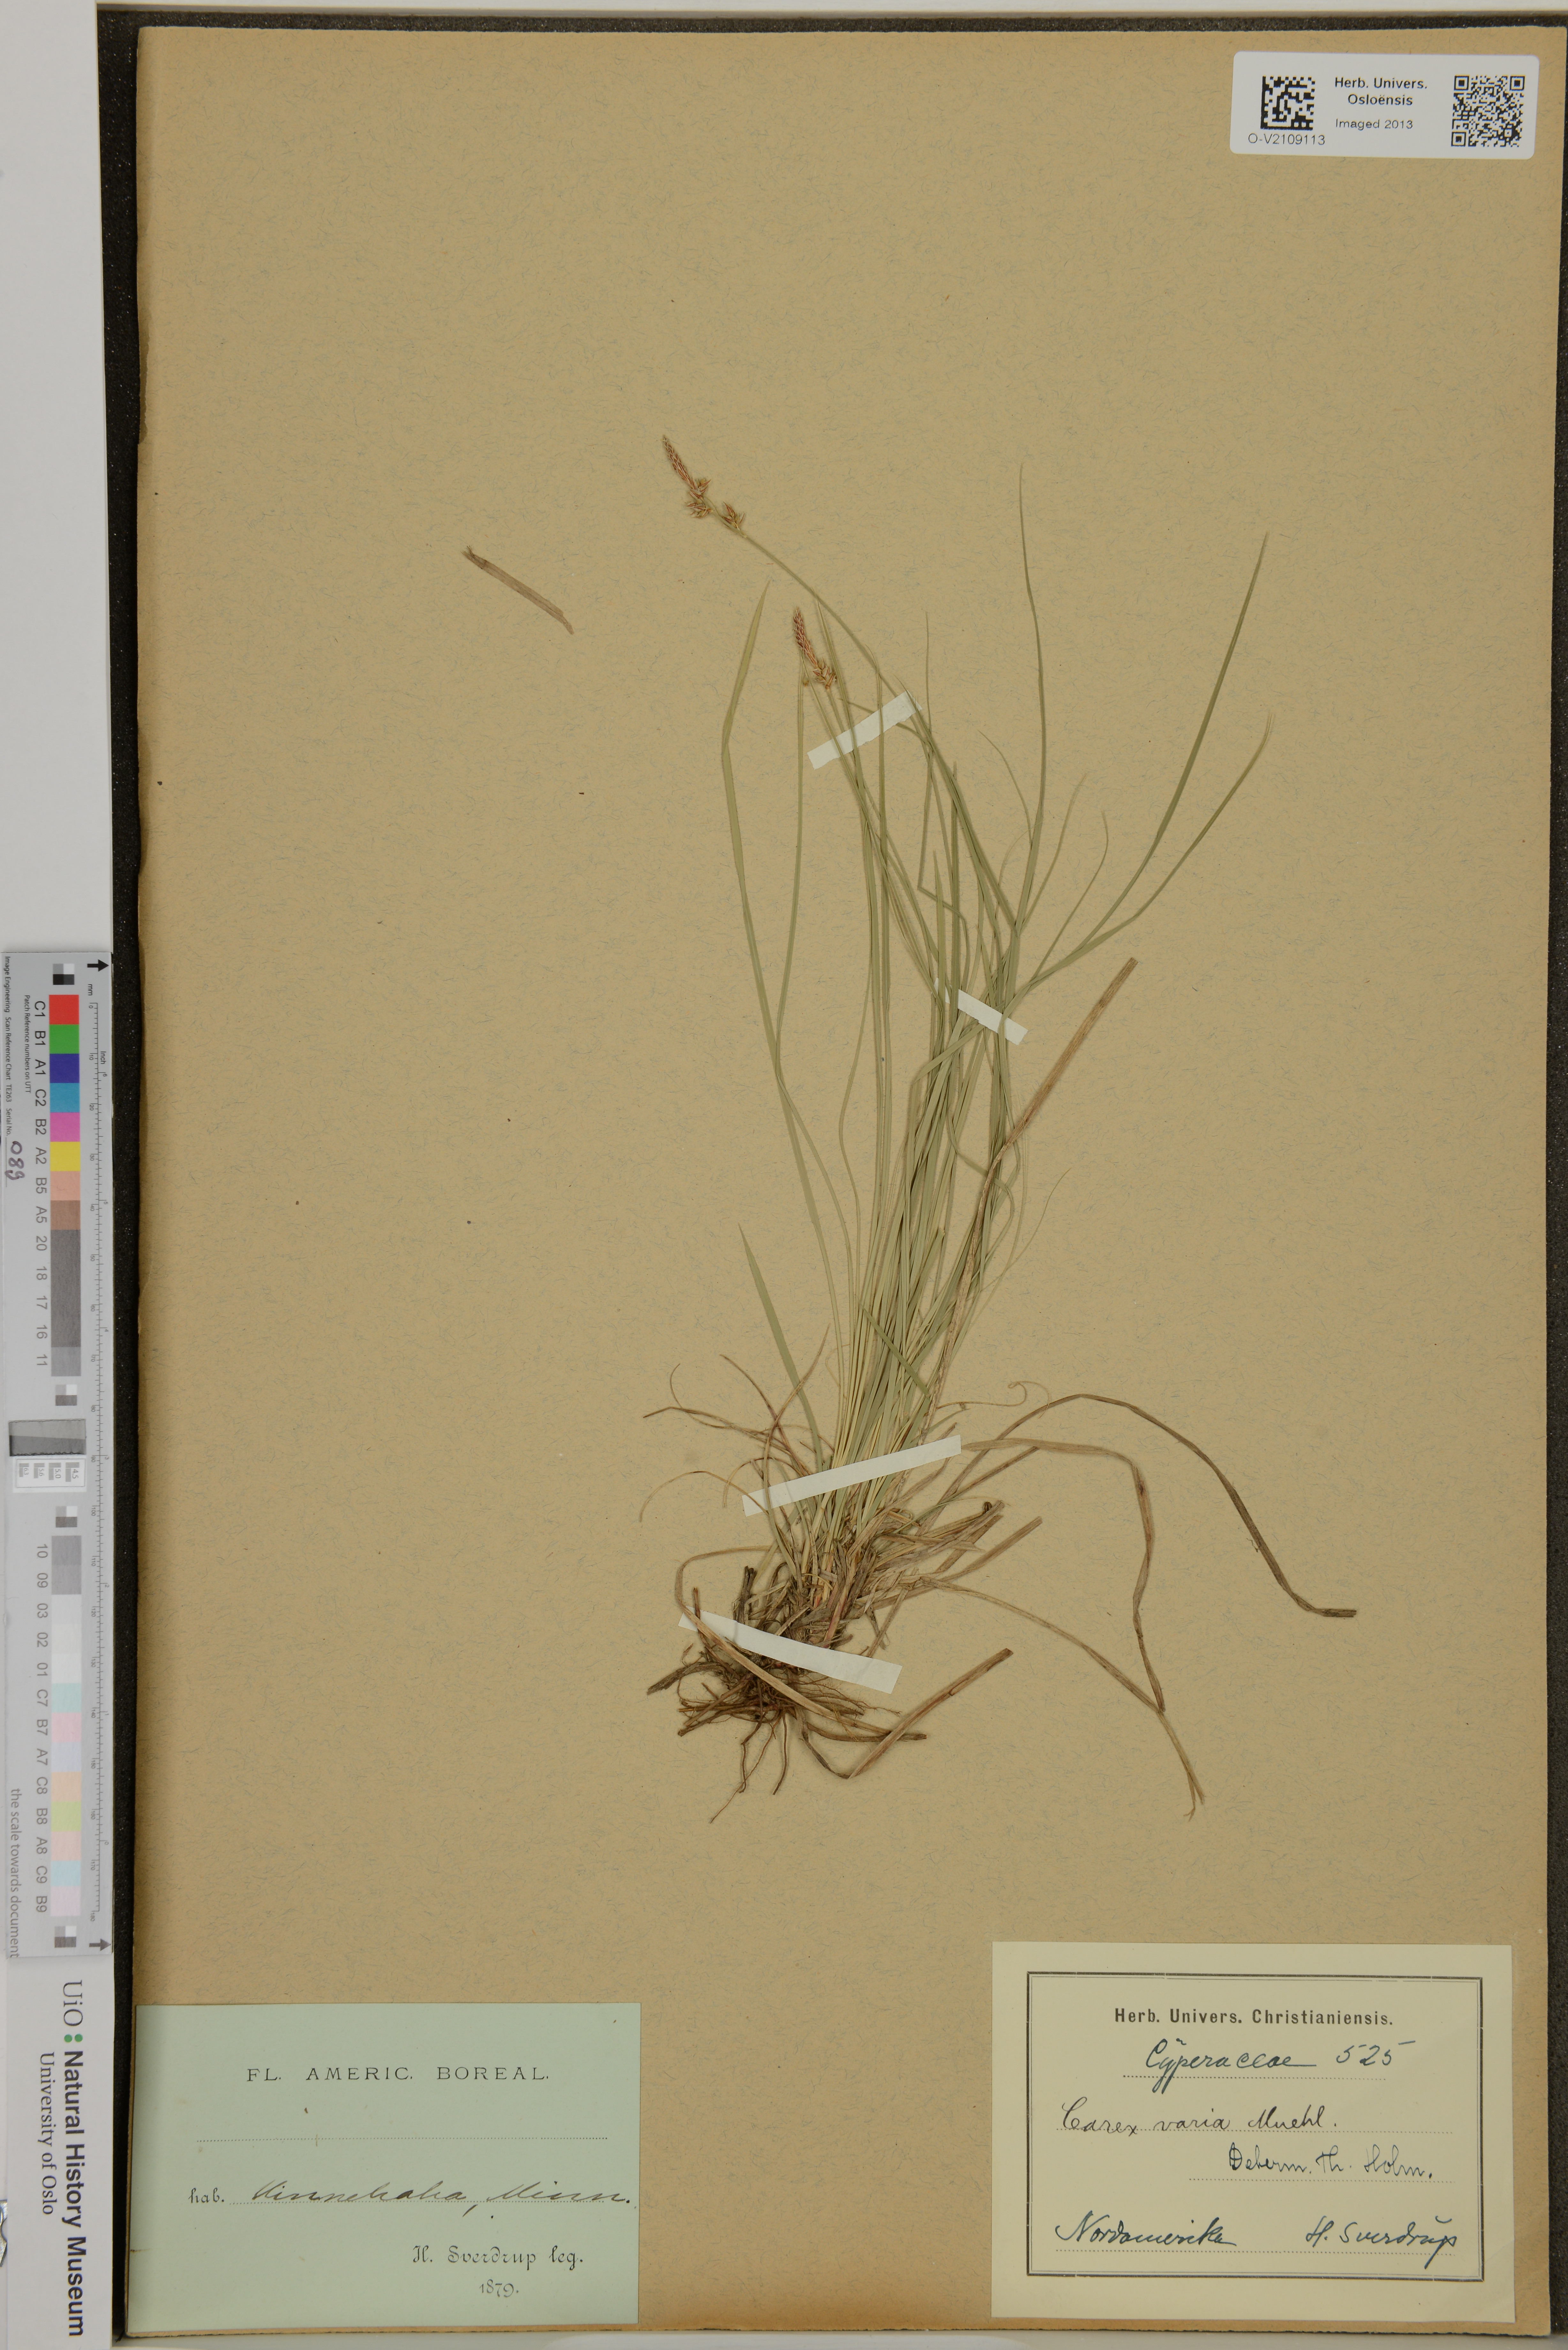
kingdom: Plantae
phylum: Tracheophyta
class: Liliopsida
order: Poales
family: Cyperaceae
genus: Carex
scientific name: Carex varia
